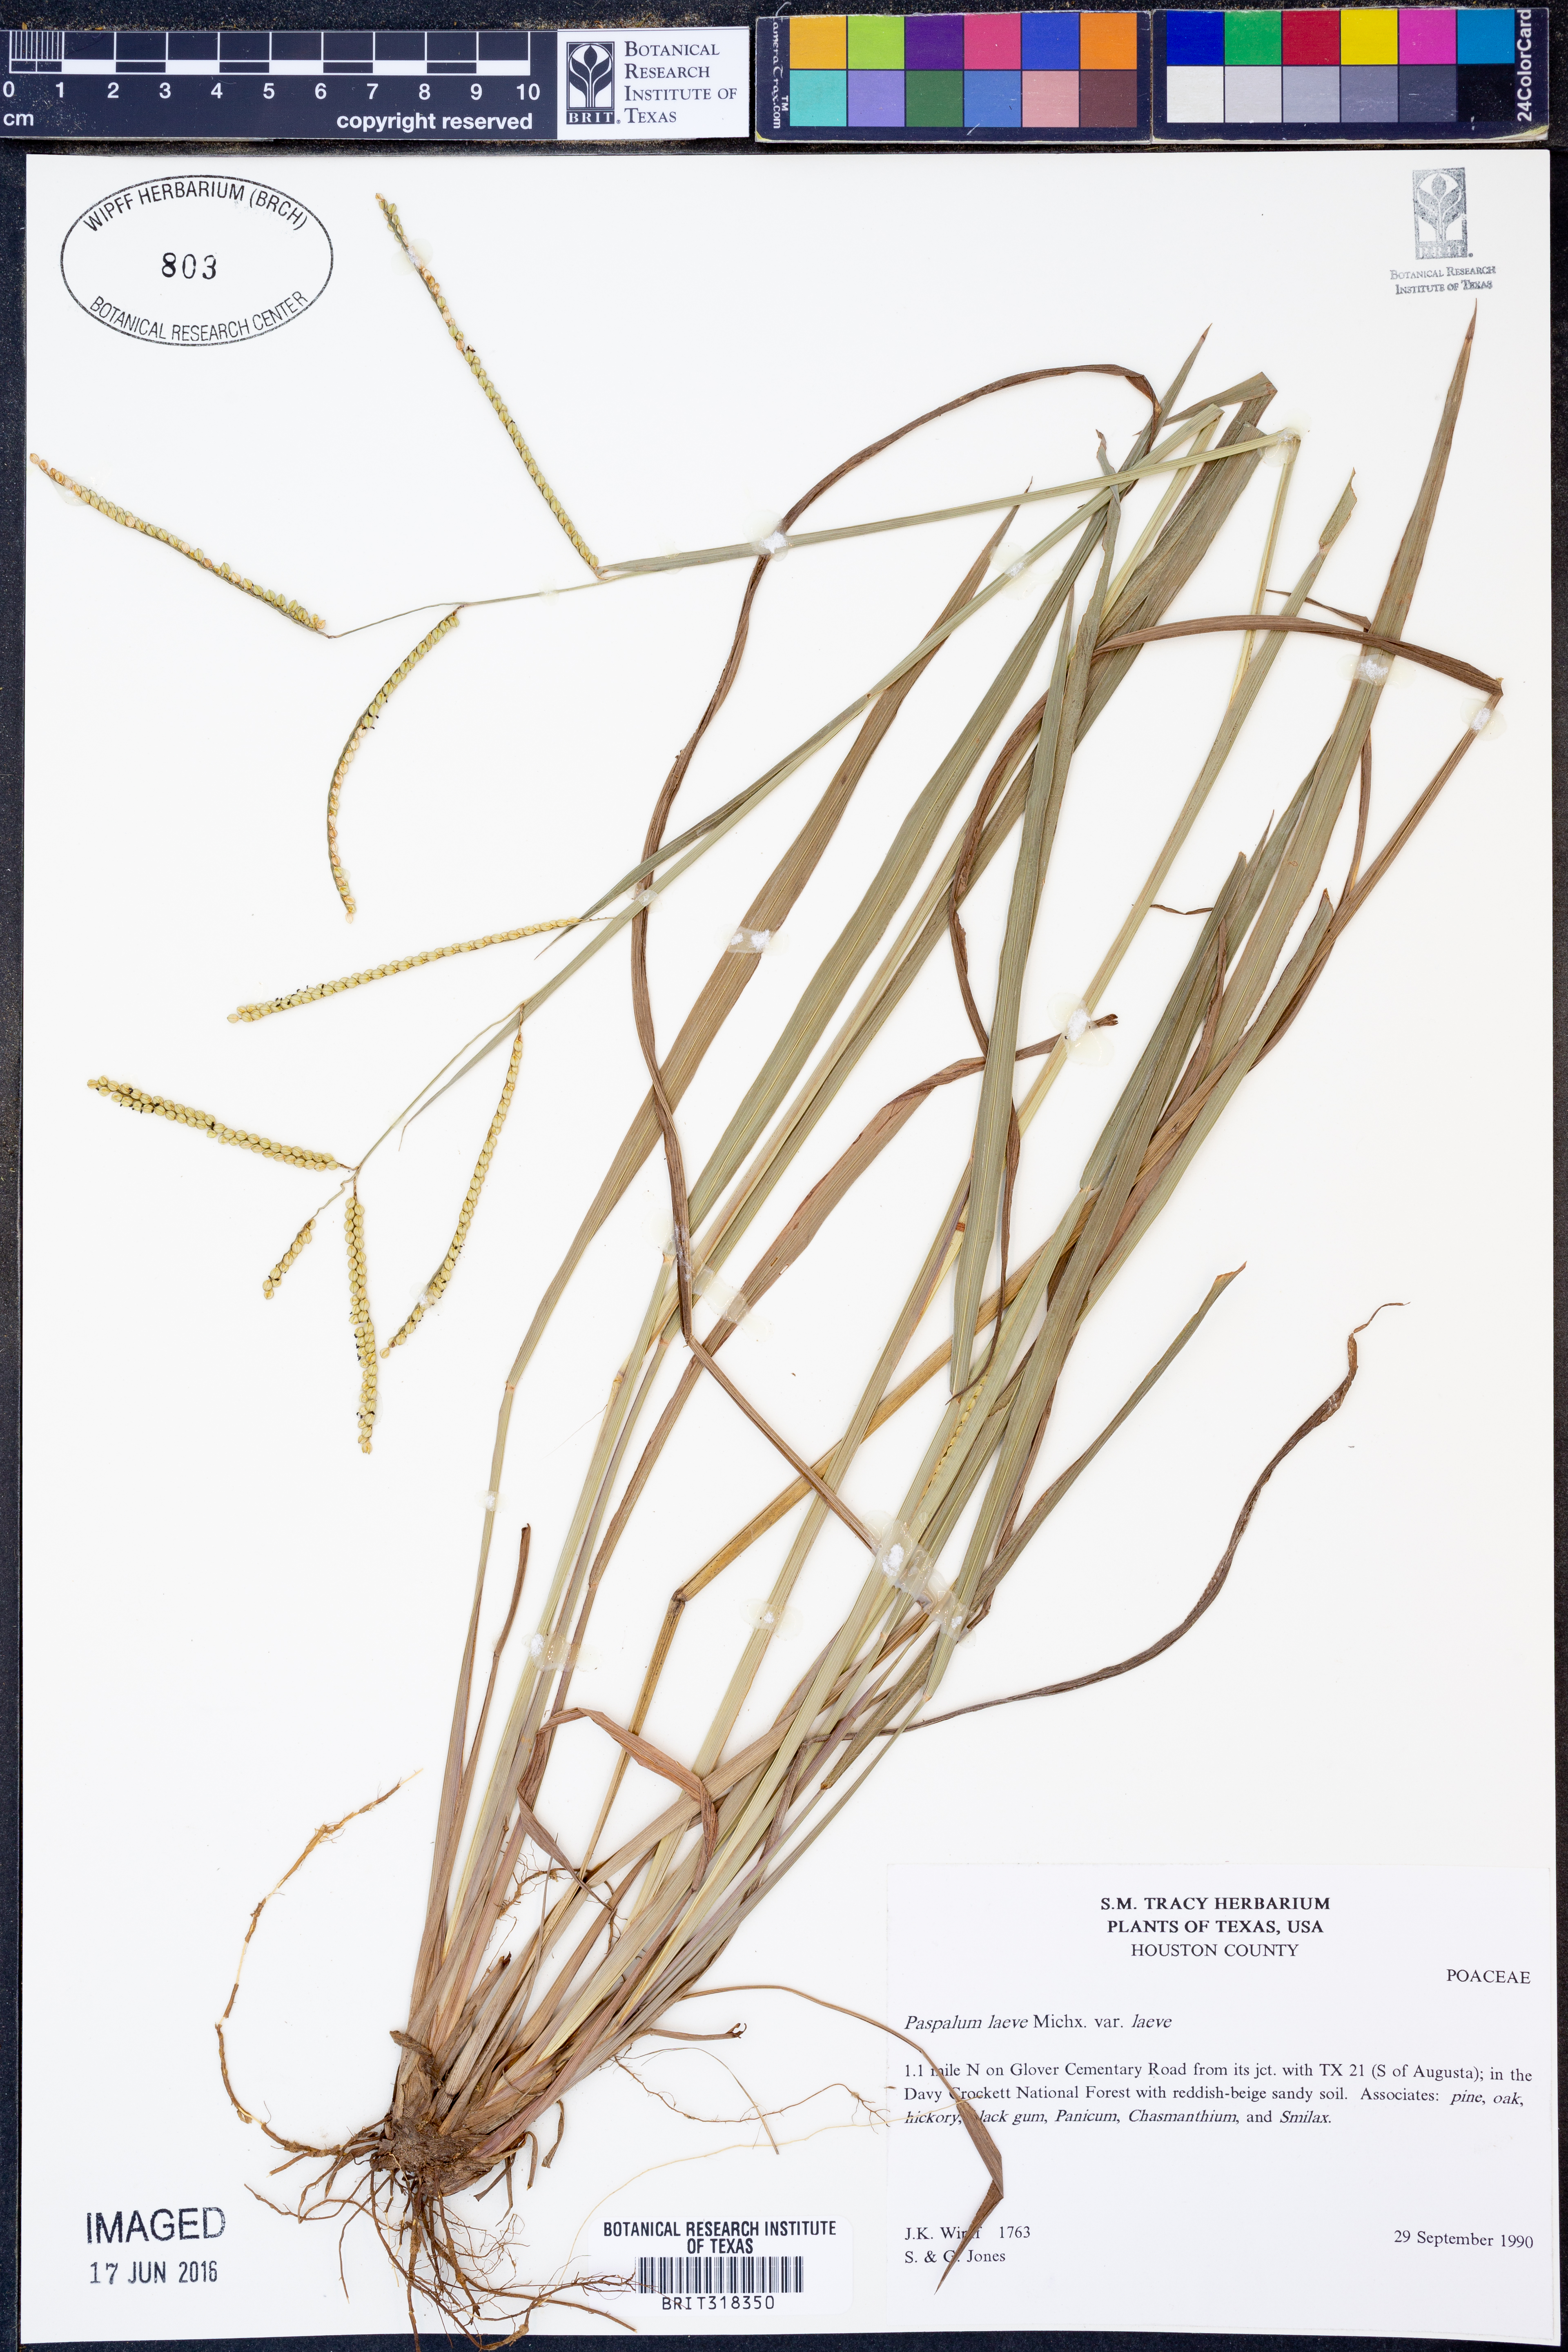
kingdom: Plantae
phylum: Tracheophyta
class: Liliopsida
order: Poales
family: Poaceae
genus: Paspalum
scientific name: Paspalum laeve
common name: Field paspalum
